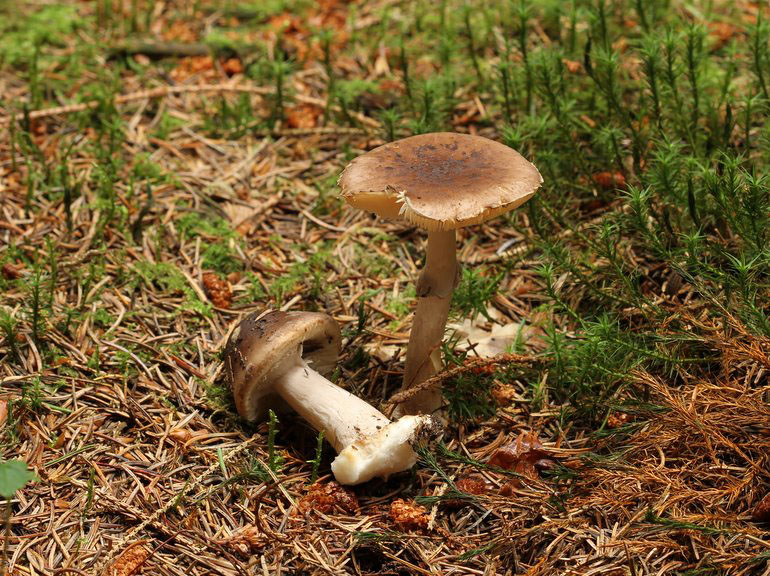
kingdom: Fungi
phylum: Basidiomycota
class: Agaricomycetes
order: Agaricales
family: Amanitaceae
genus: Amanita
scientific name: Amanita porphyria
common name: porfyr-fluesvamp
